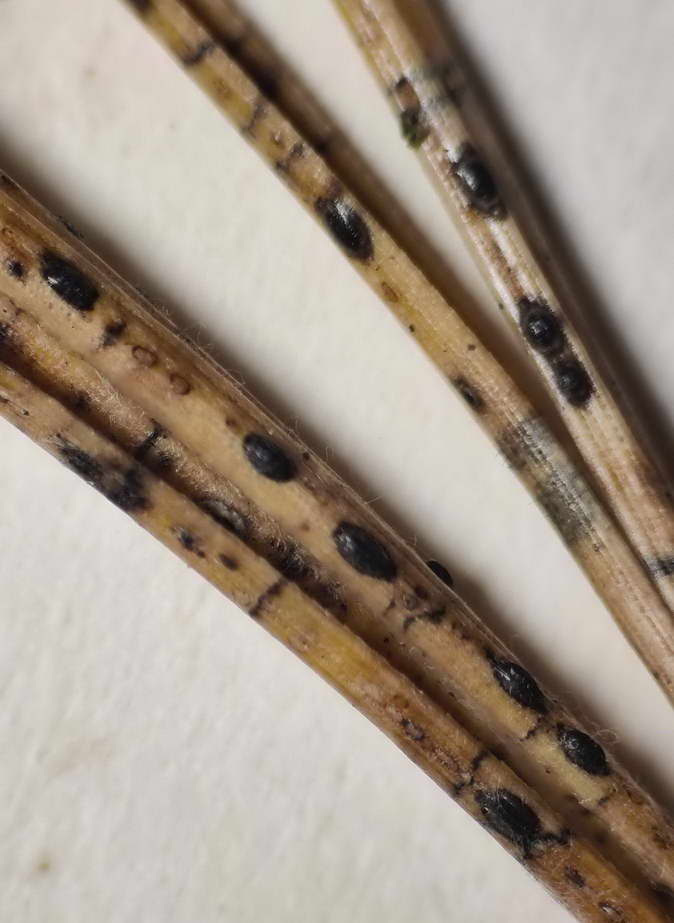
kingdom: Fungi
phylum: Ascomycota
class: Leotiomycetes
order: Rhytismatales
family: Rhytismataceae
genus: Lophodermium
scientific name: Lophodermium pinastri
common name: fyrre-fureplet
